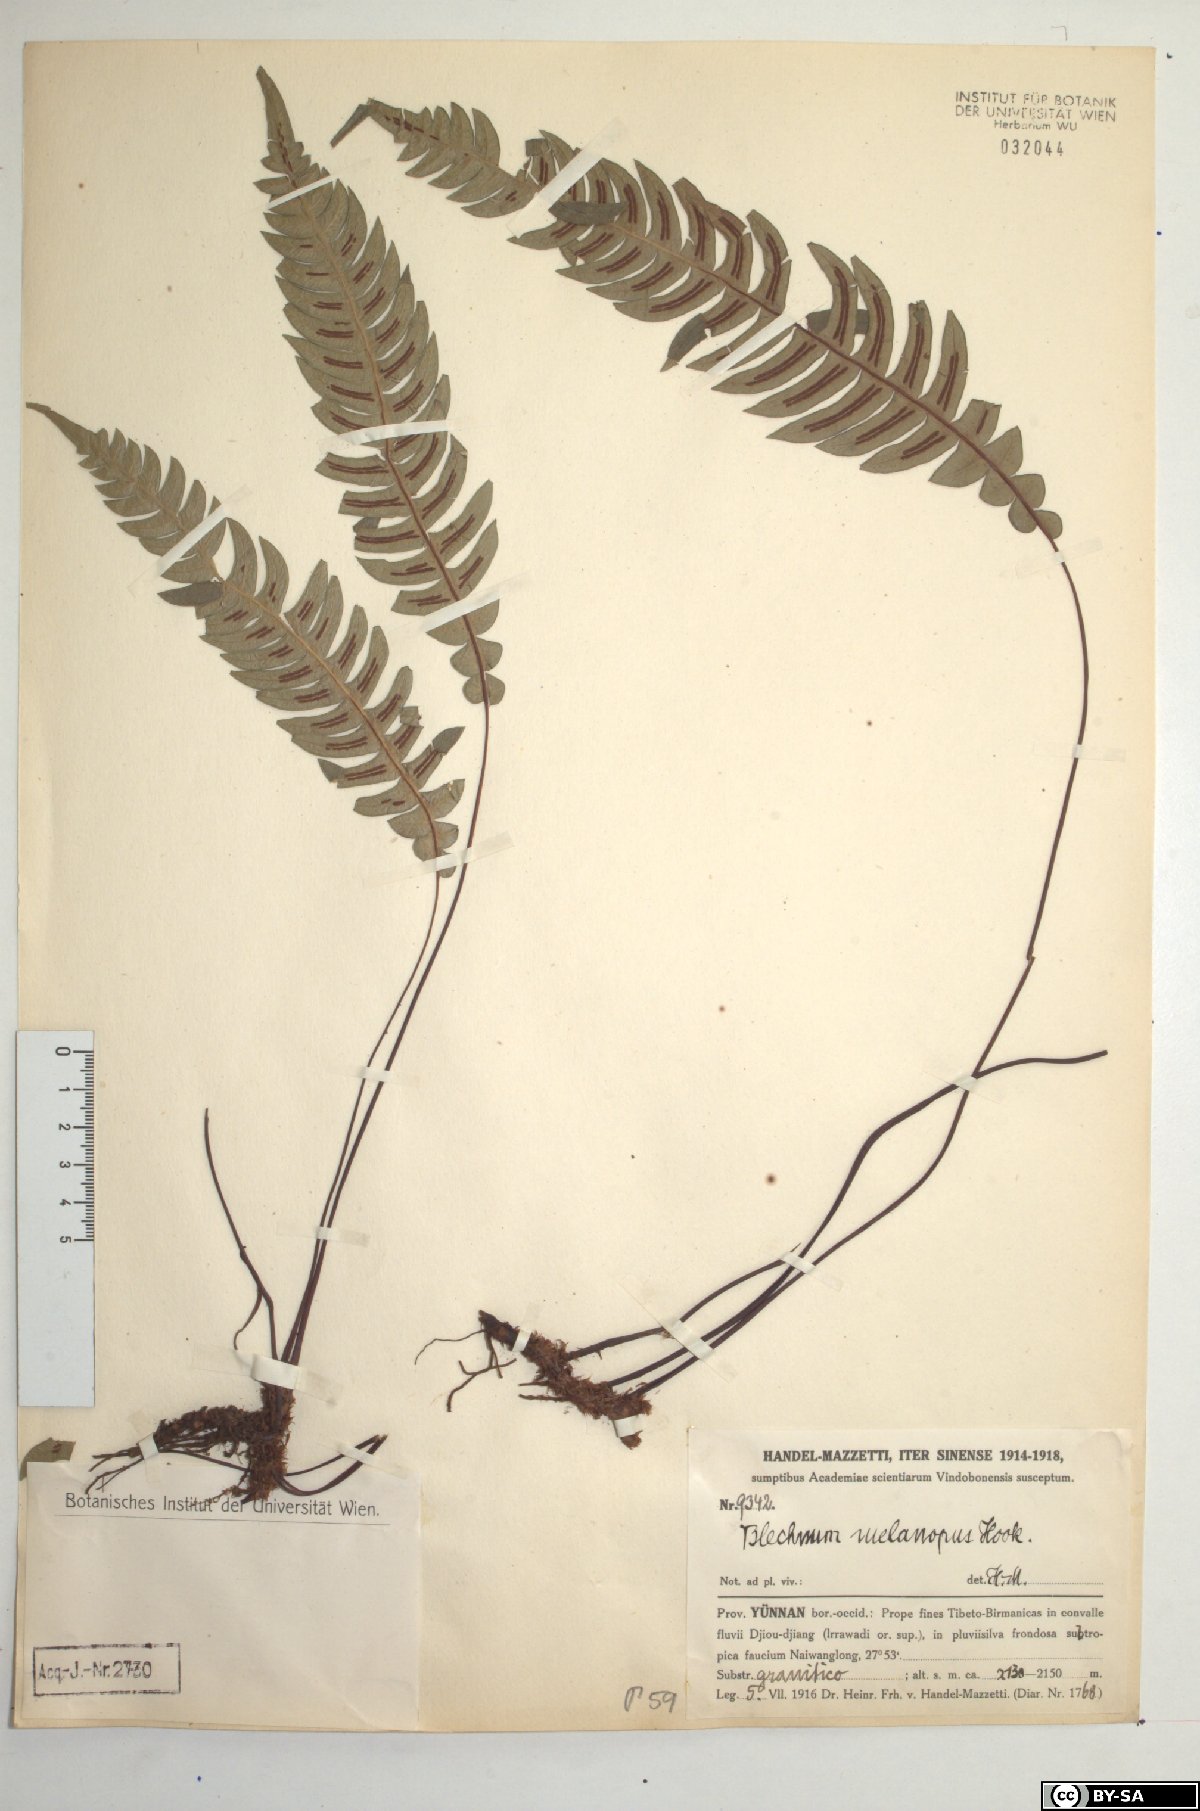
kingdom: Plantae
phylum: Tracheophyta
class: Polypodiopsida
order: Polypodiales
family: Blechnaceae
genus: Blechnidium
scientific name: Blechnidium melanopus
